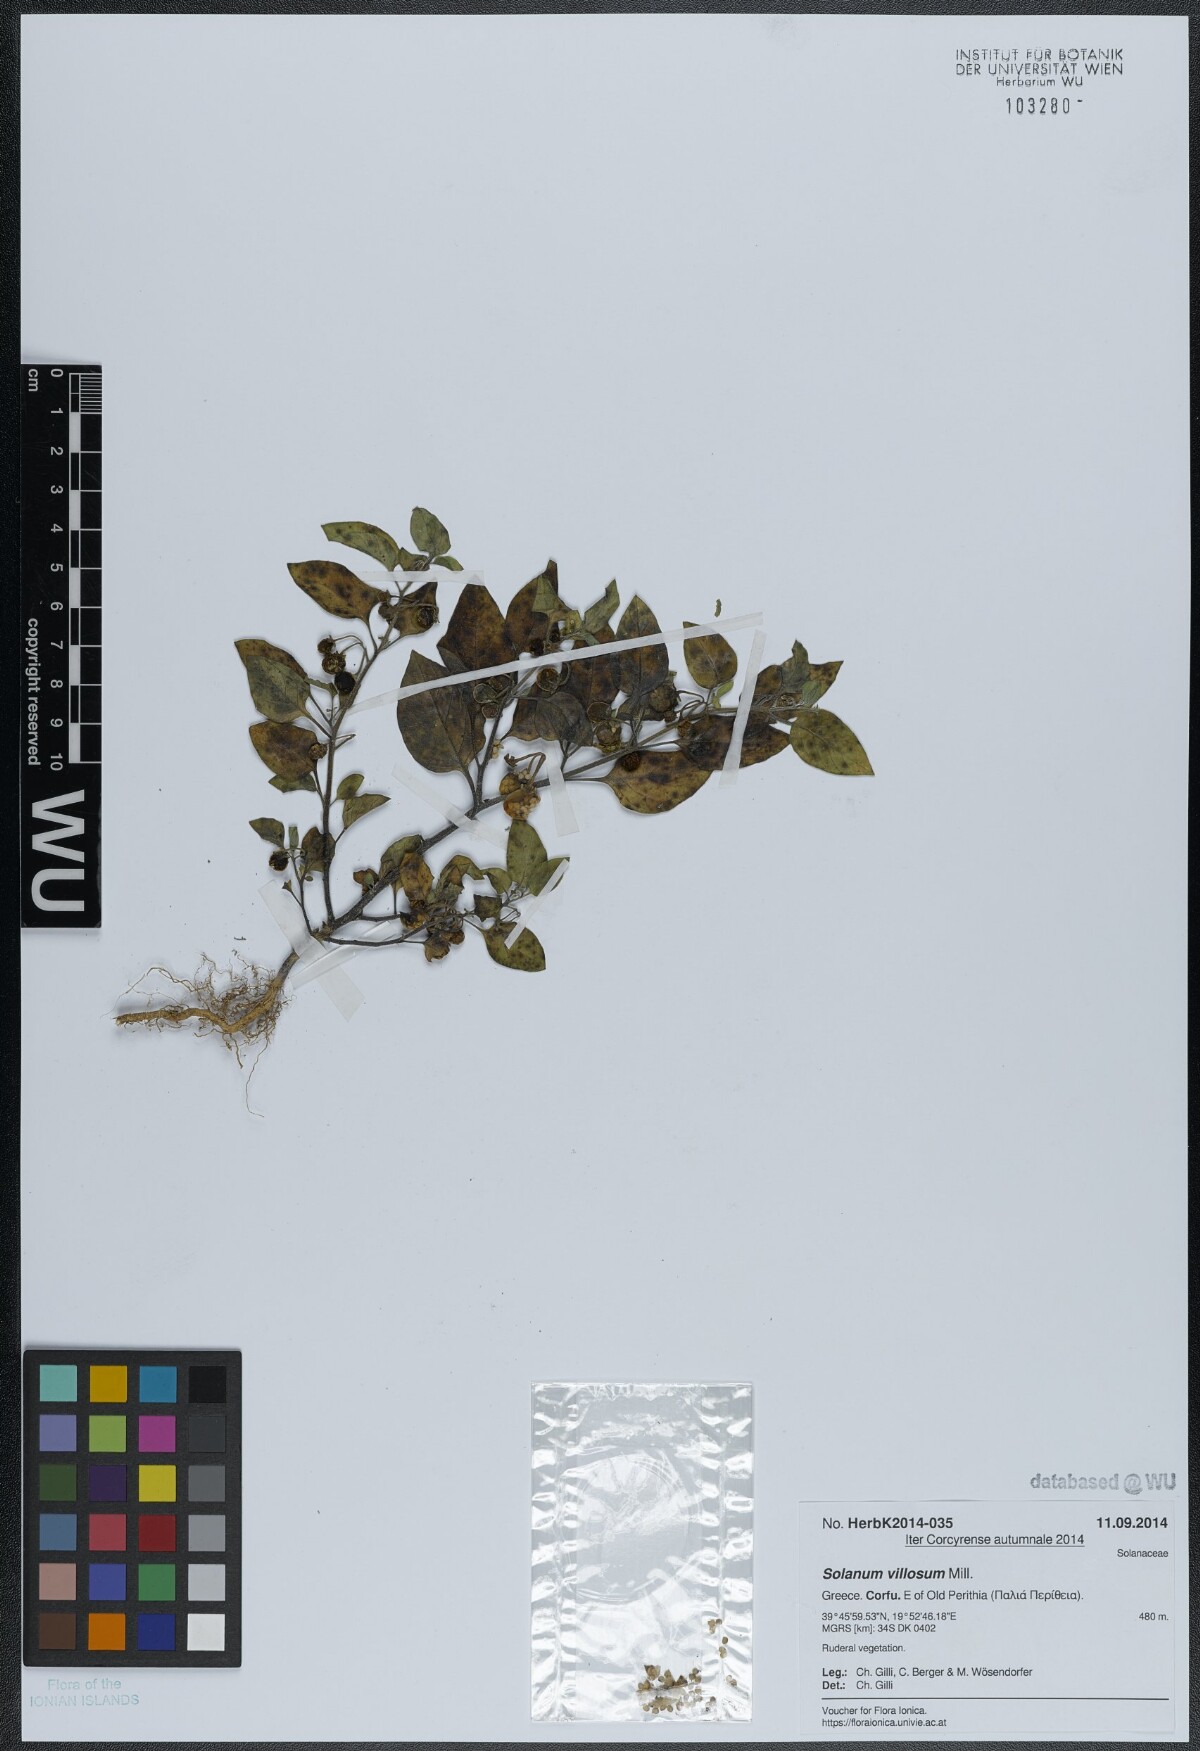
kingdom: Plantae
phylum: Tracheophyta
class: Magnoliopsida
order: Solanales
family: Solanaceae
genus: Solanum
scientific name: Solanum villosum
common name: Red nightshade
